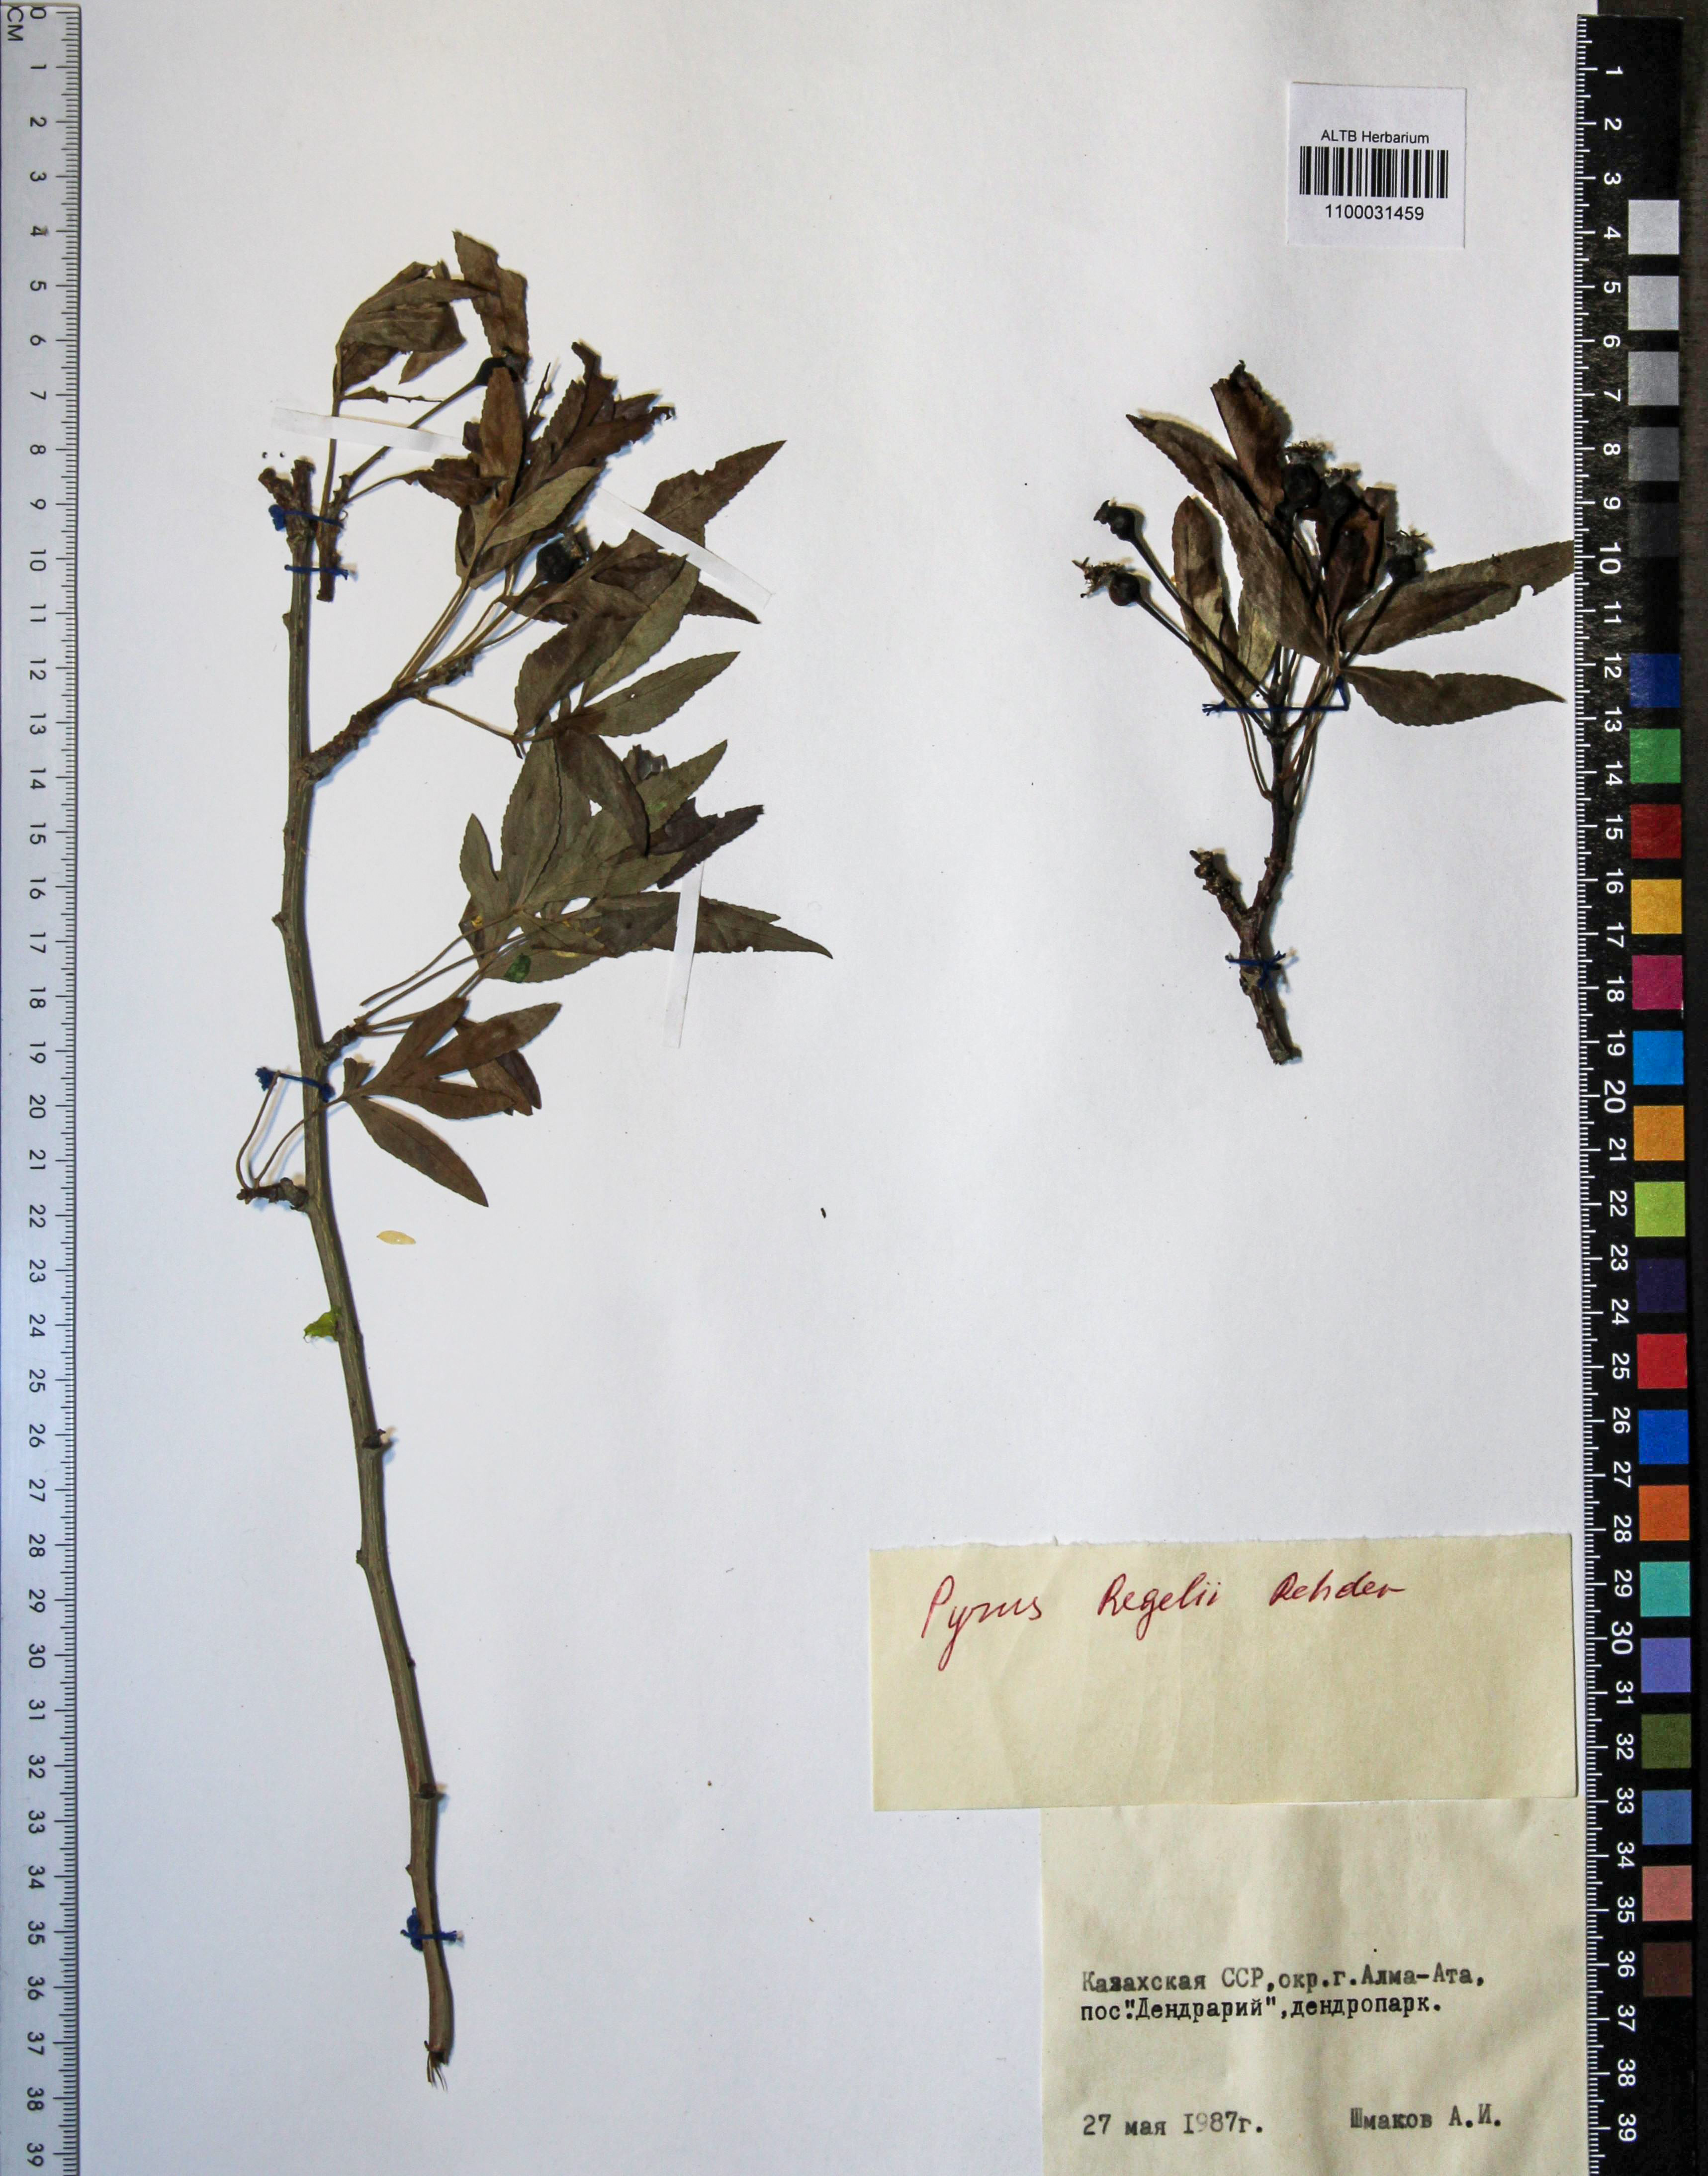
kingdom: Plantae
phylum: Tracheophyta
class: Magnoliopsida
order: Rosales
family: Rosaceae
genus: Pyrus
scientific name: Pyrus regelii
